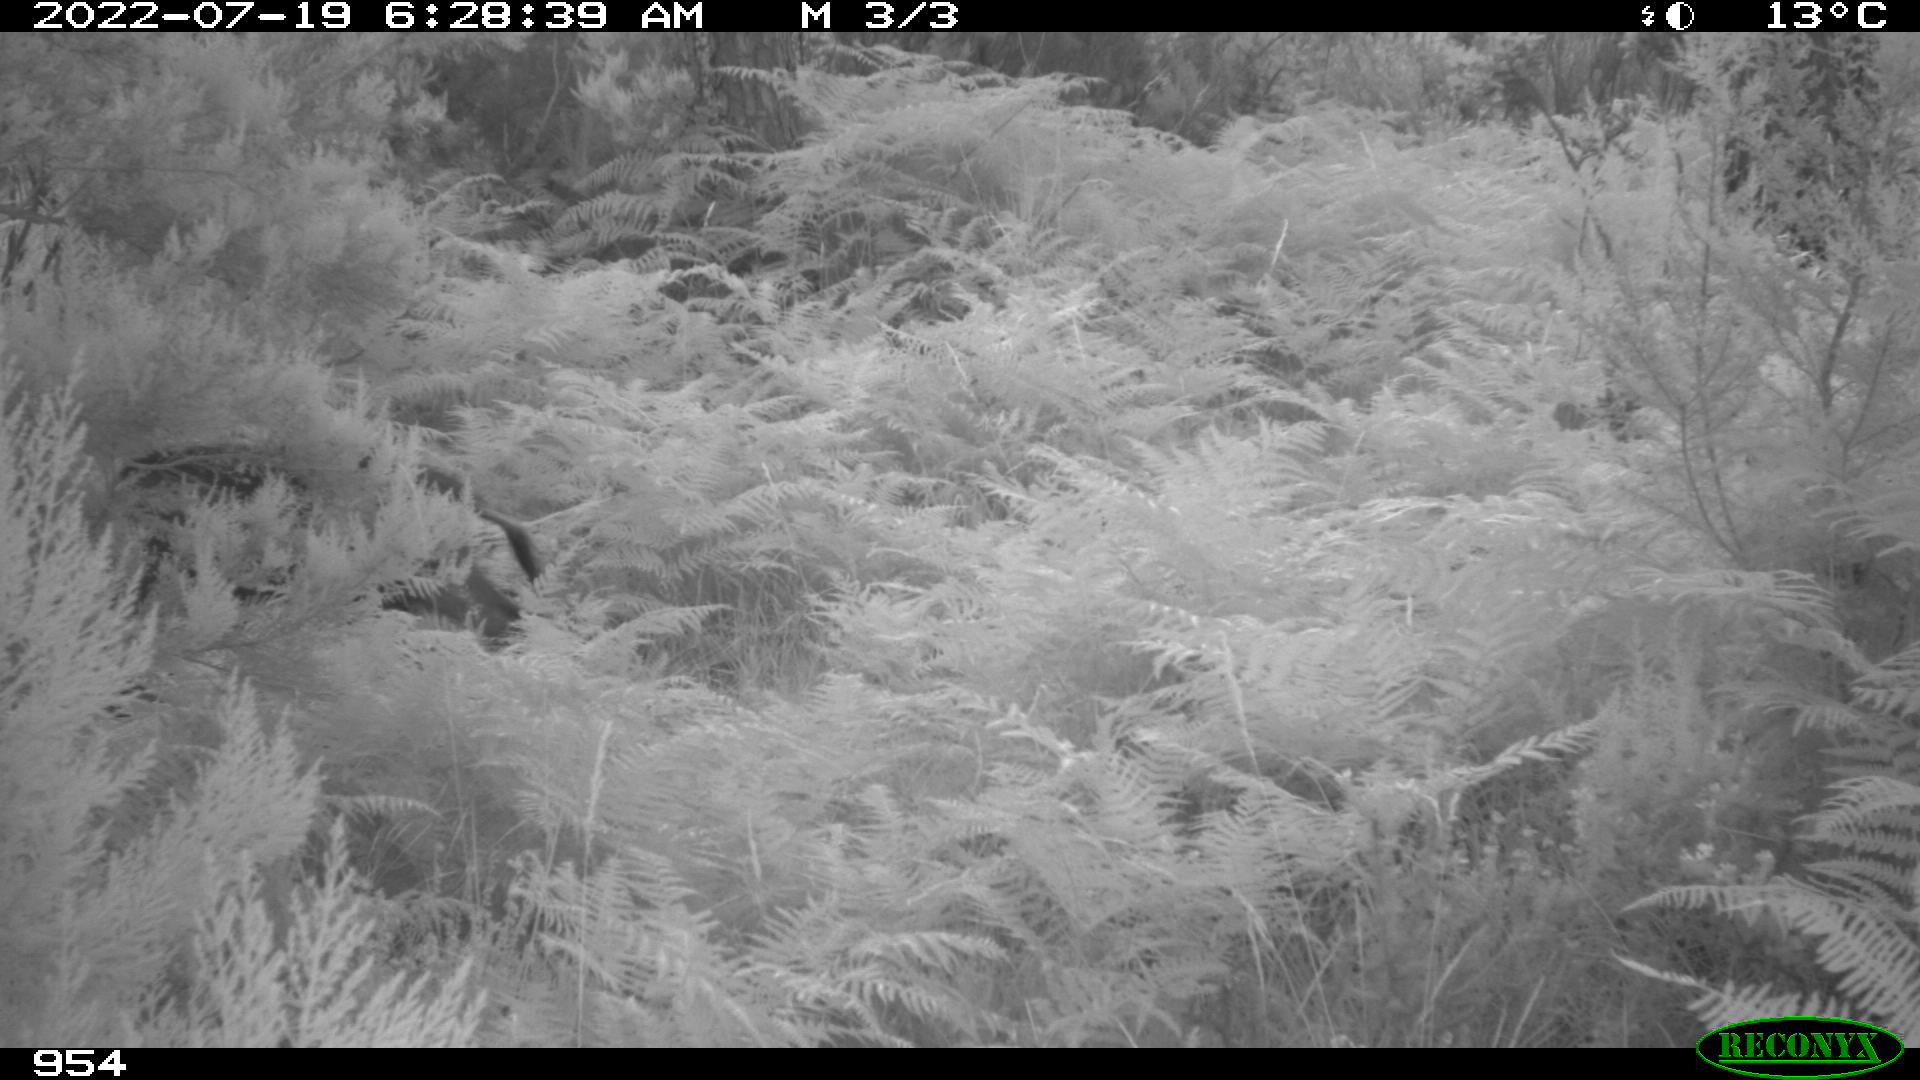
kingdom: Animalia
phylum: Chordata
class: Mammalia
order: Artiodactyla
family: Suidae
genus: Sus
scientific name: Sus scrofa
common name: Wild boar
